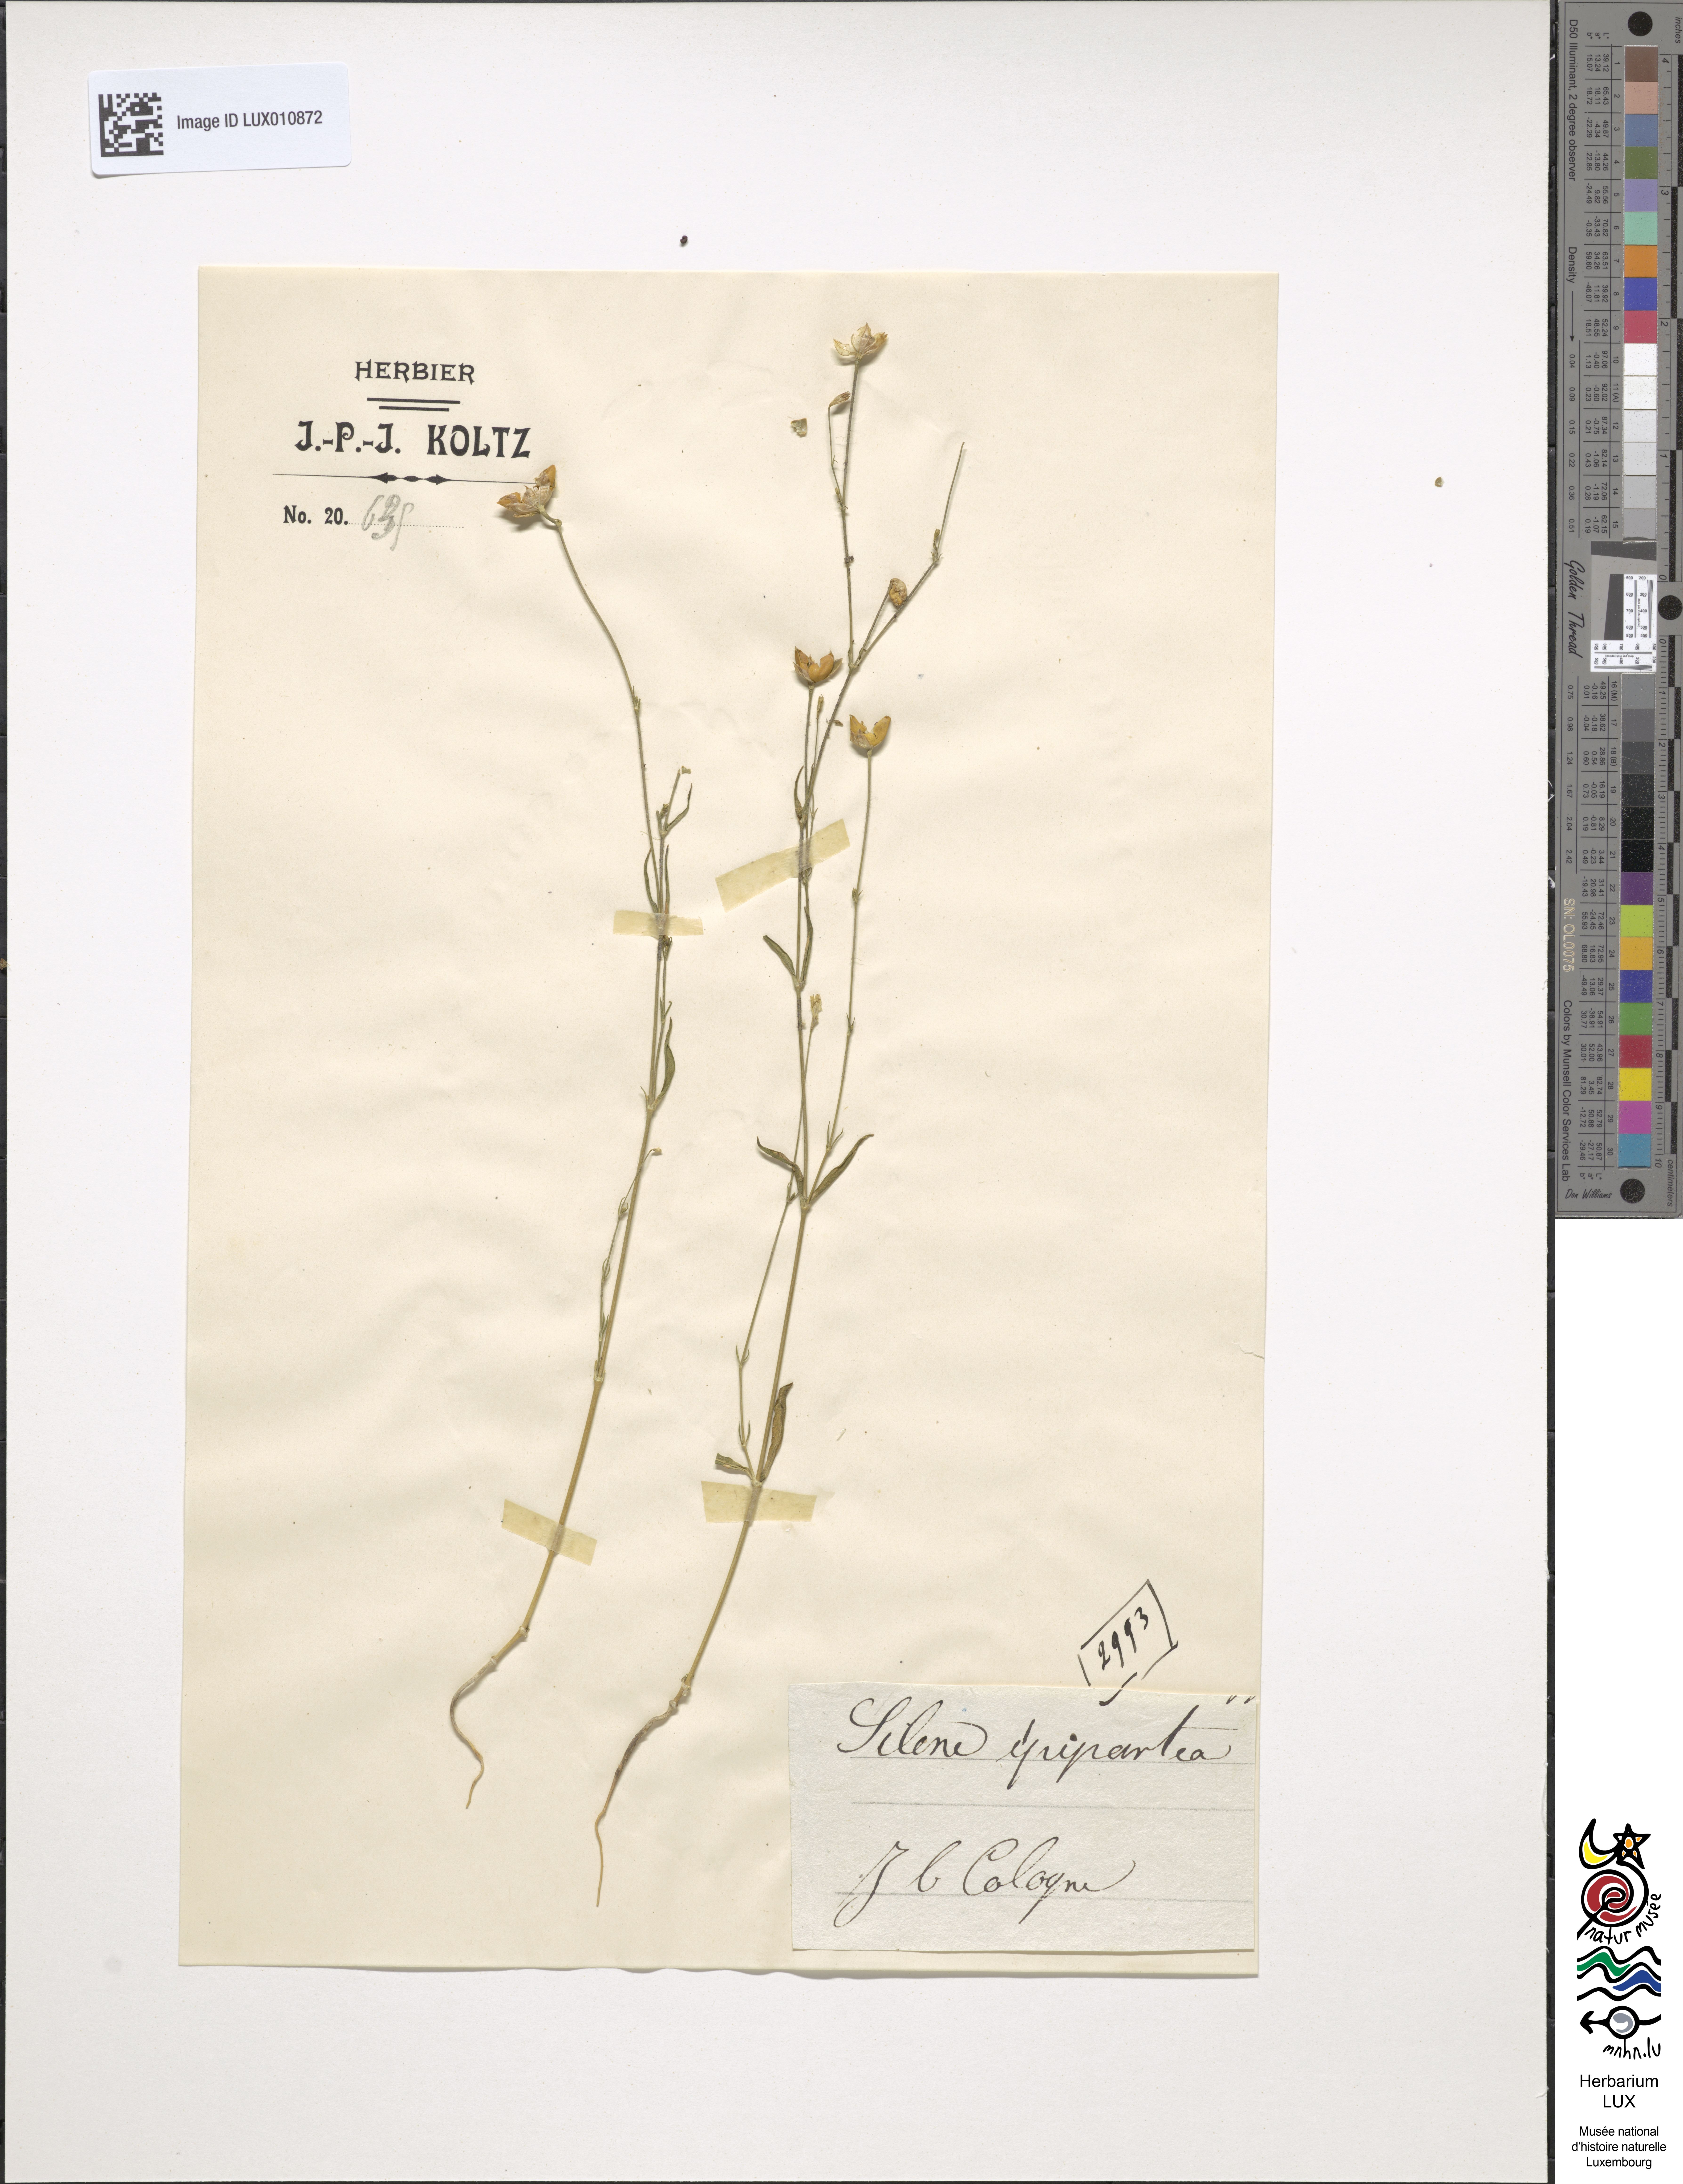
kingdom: Plantae
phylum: Tracheophyta
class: Magnoliopsida
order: Caryophyllales
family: Caryophyllaceae
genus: Silene
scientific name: Silene
